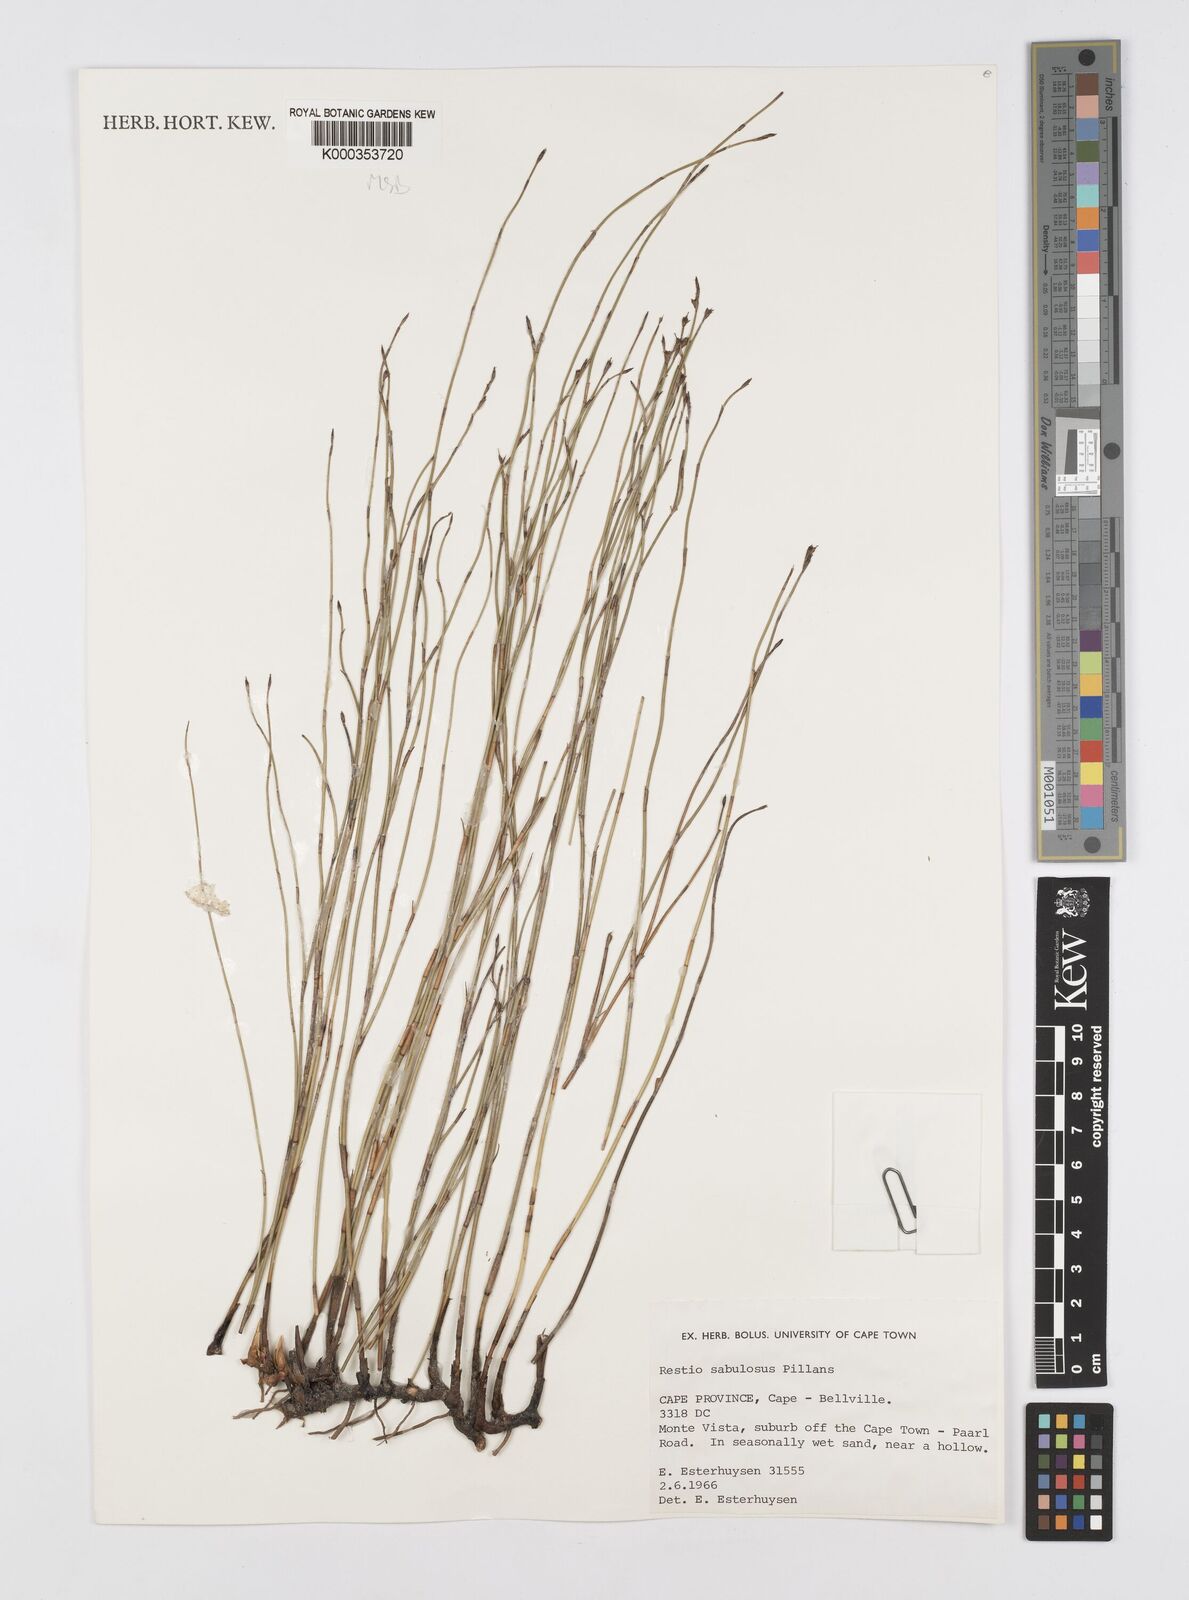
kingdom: Plantae
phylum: Tracheophyta
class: Liliopsida
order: Poales
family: Restionaceae
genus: Restio
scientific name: Restio sabulosus
